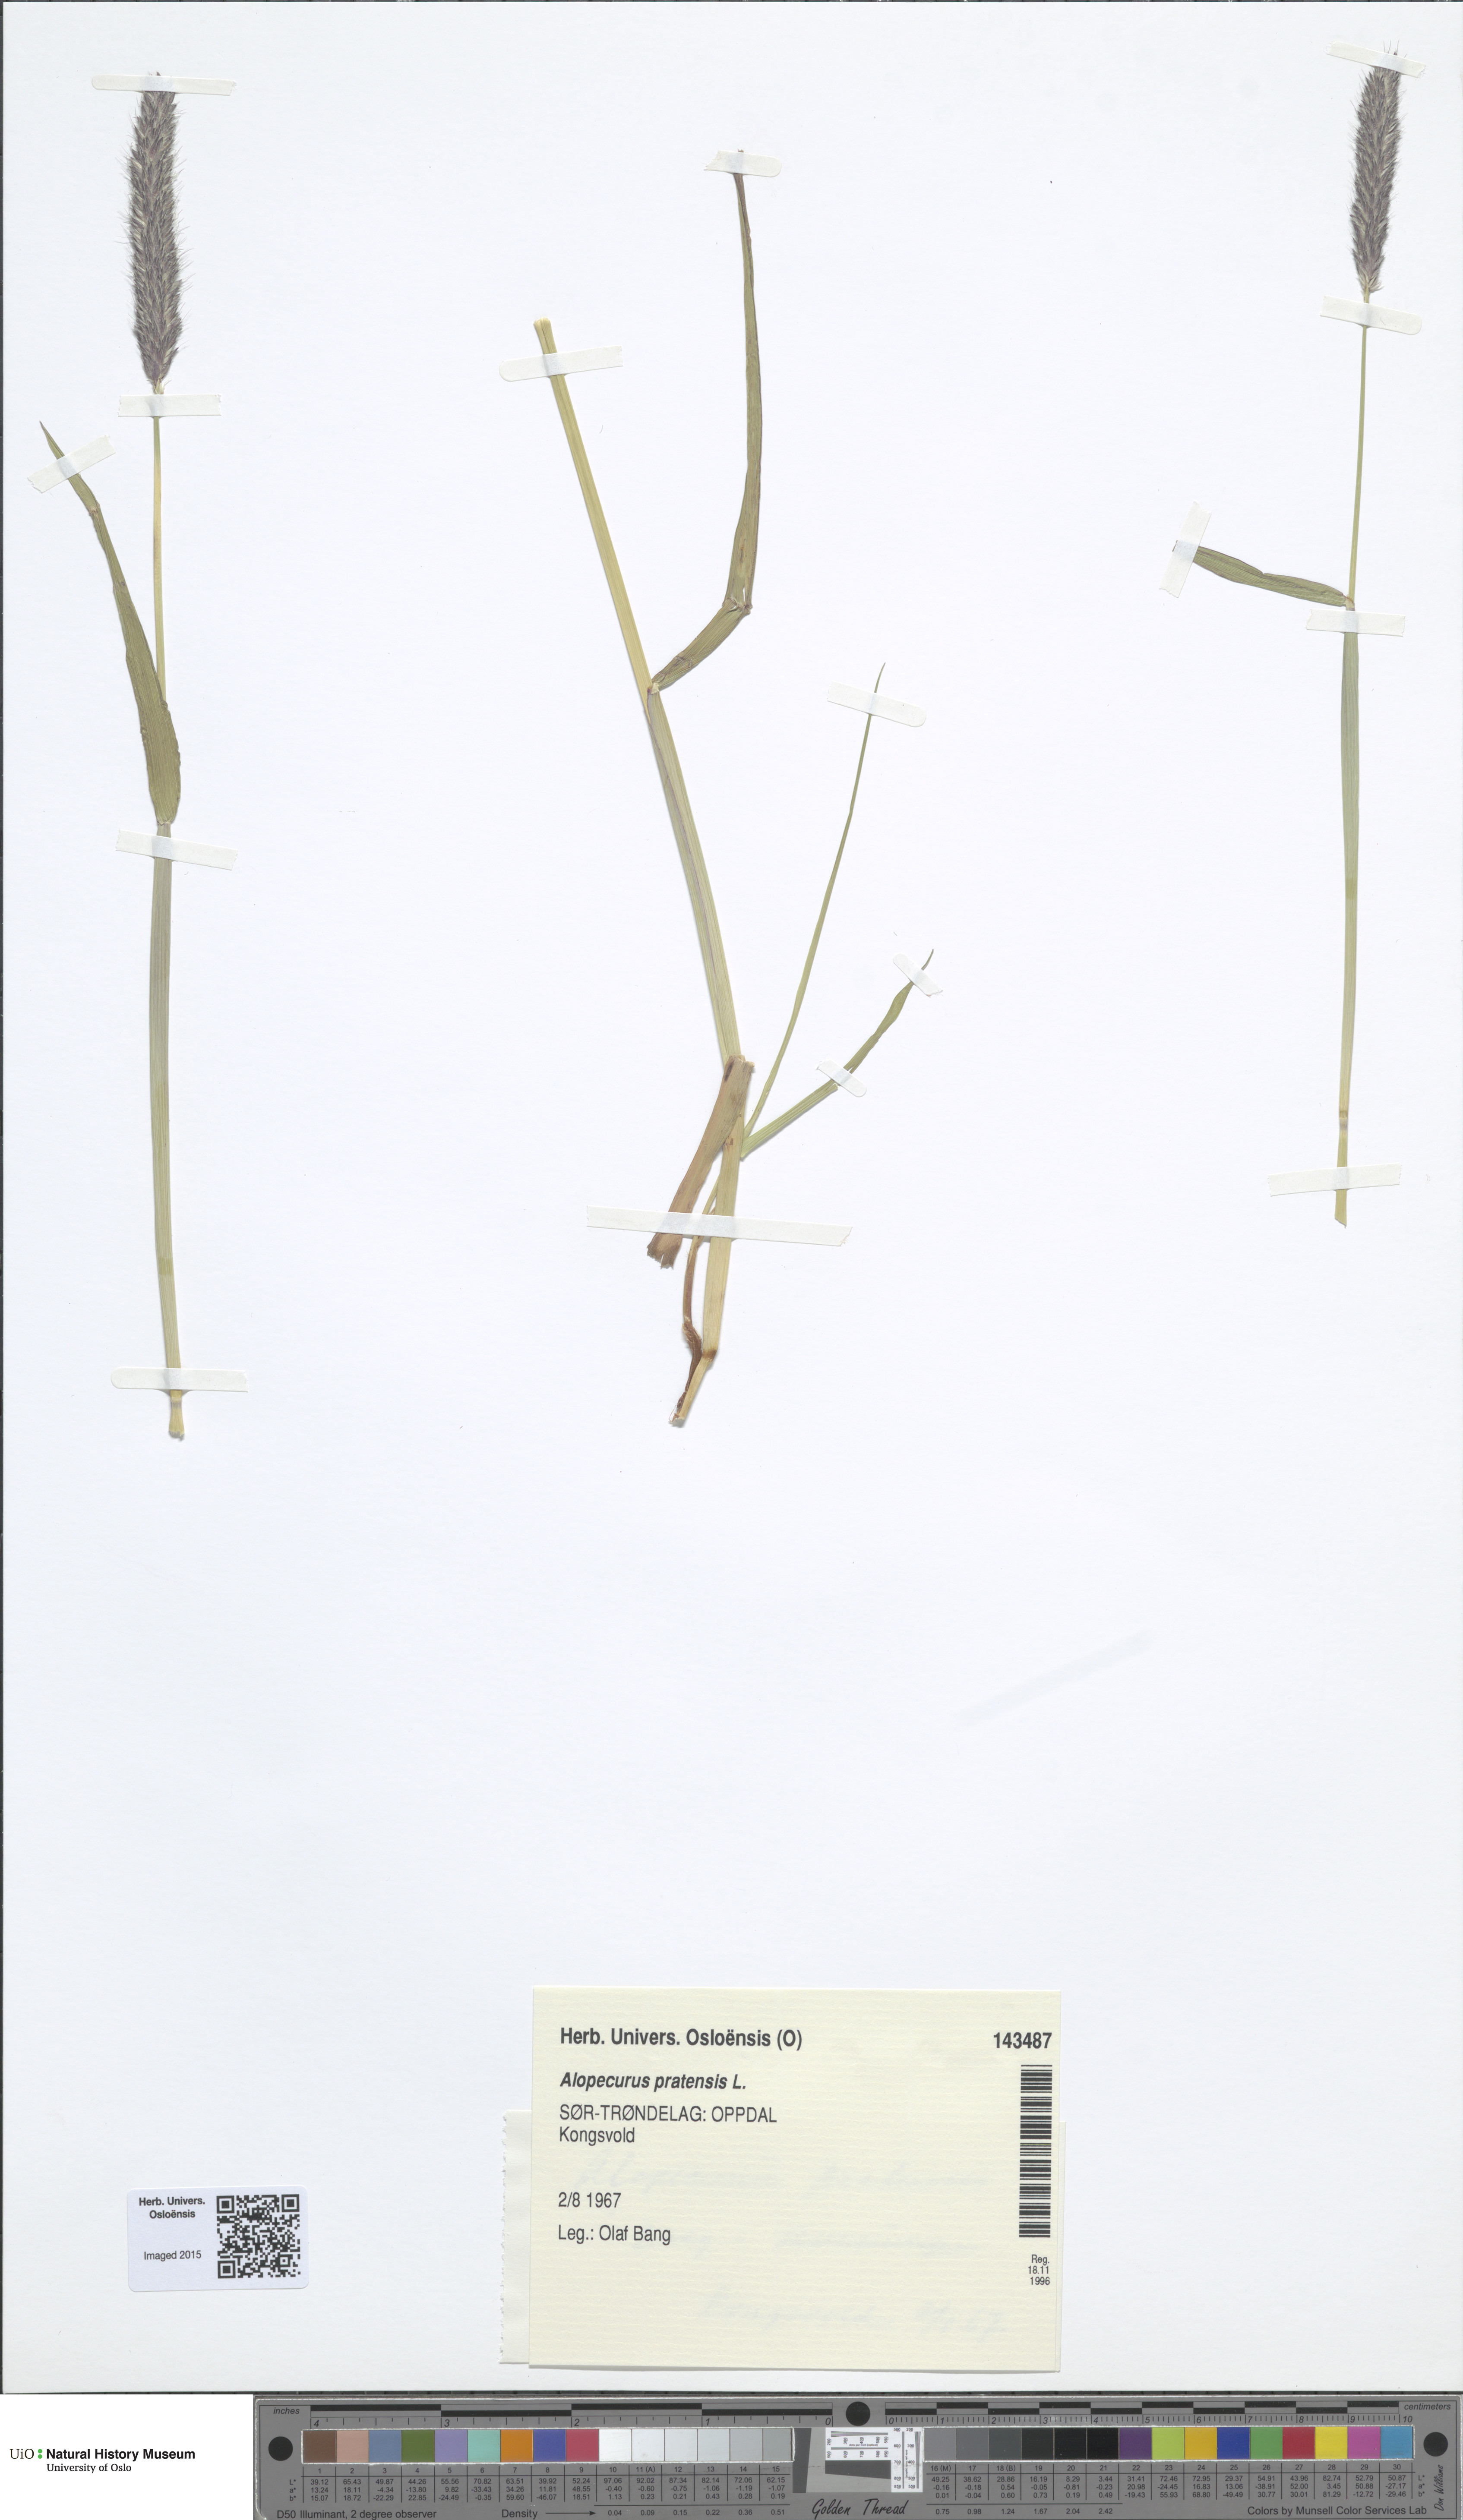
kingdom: Plantae
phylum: Tracheophyta
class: Liliopsida
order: Poales
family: Poaceae
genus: Alopecurus
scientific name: Alopecurus pratensis
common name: Meadow foxtail
